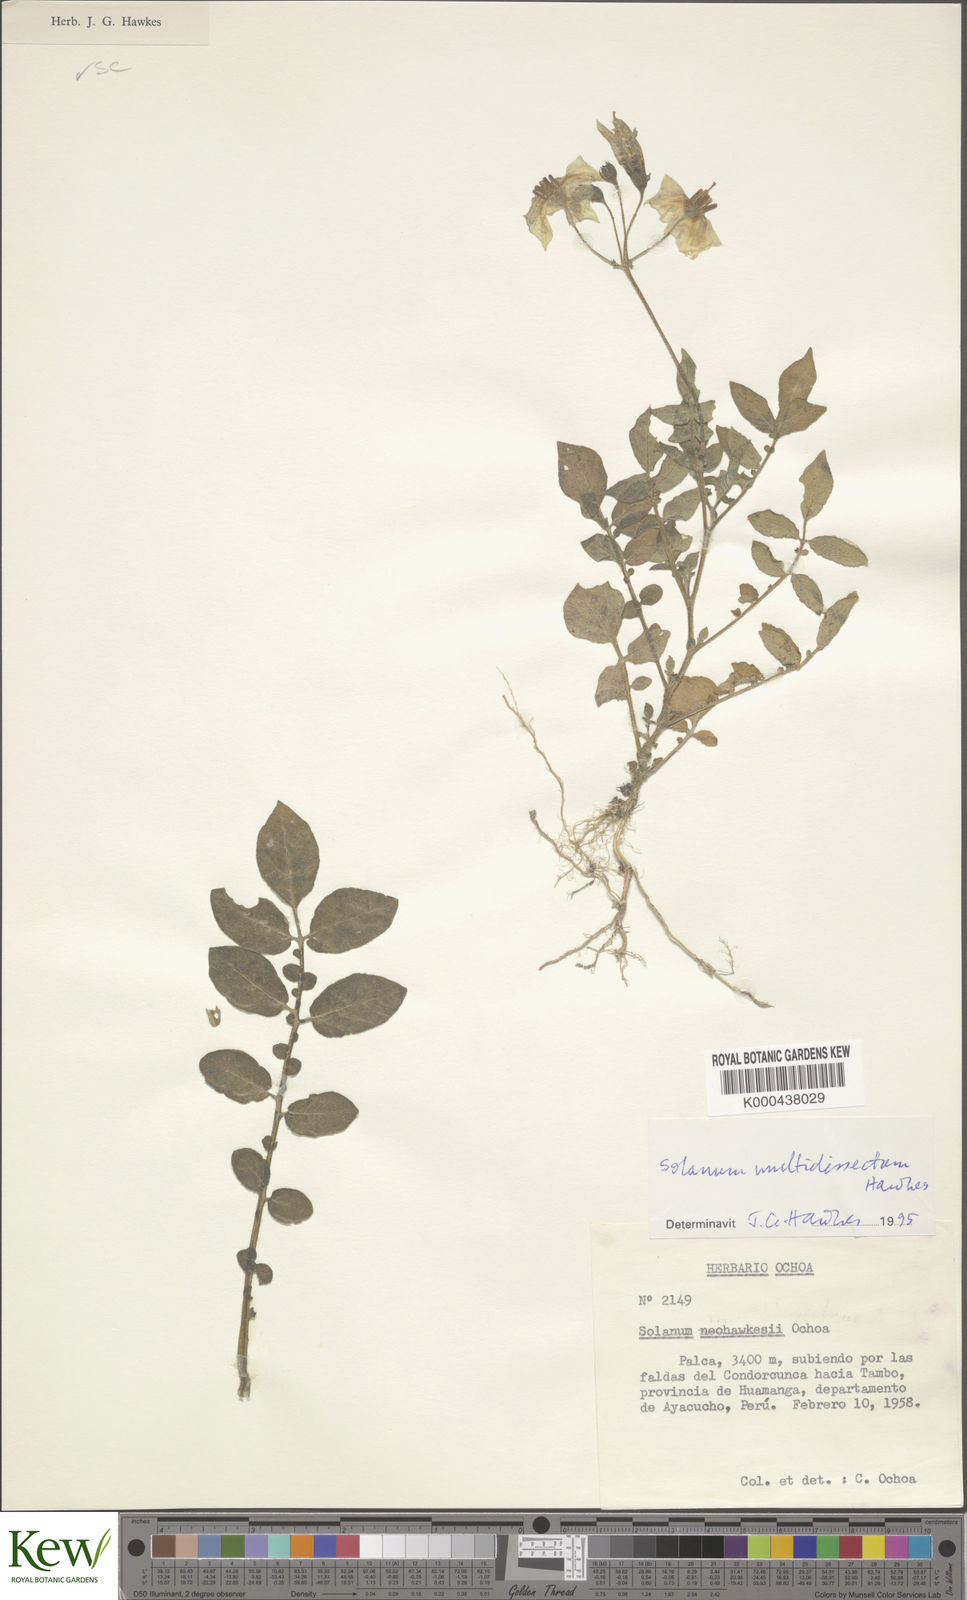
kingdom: Plantae
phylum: Tracheophyta
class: Magnoliopsida
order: Solanales
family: Solanaceae
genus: Solanum
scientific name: Solanum candolleanum
